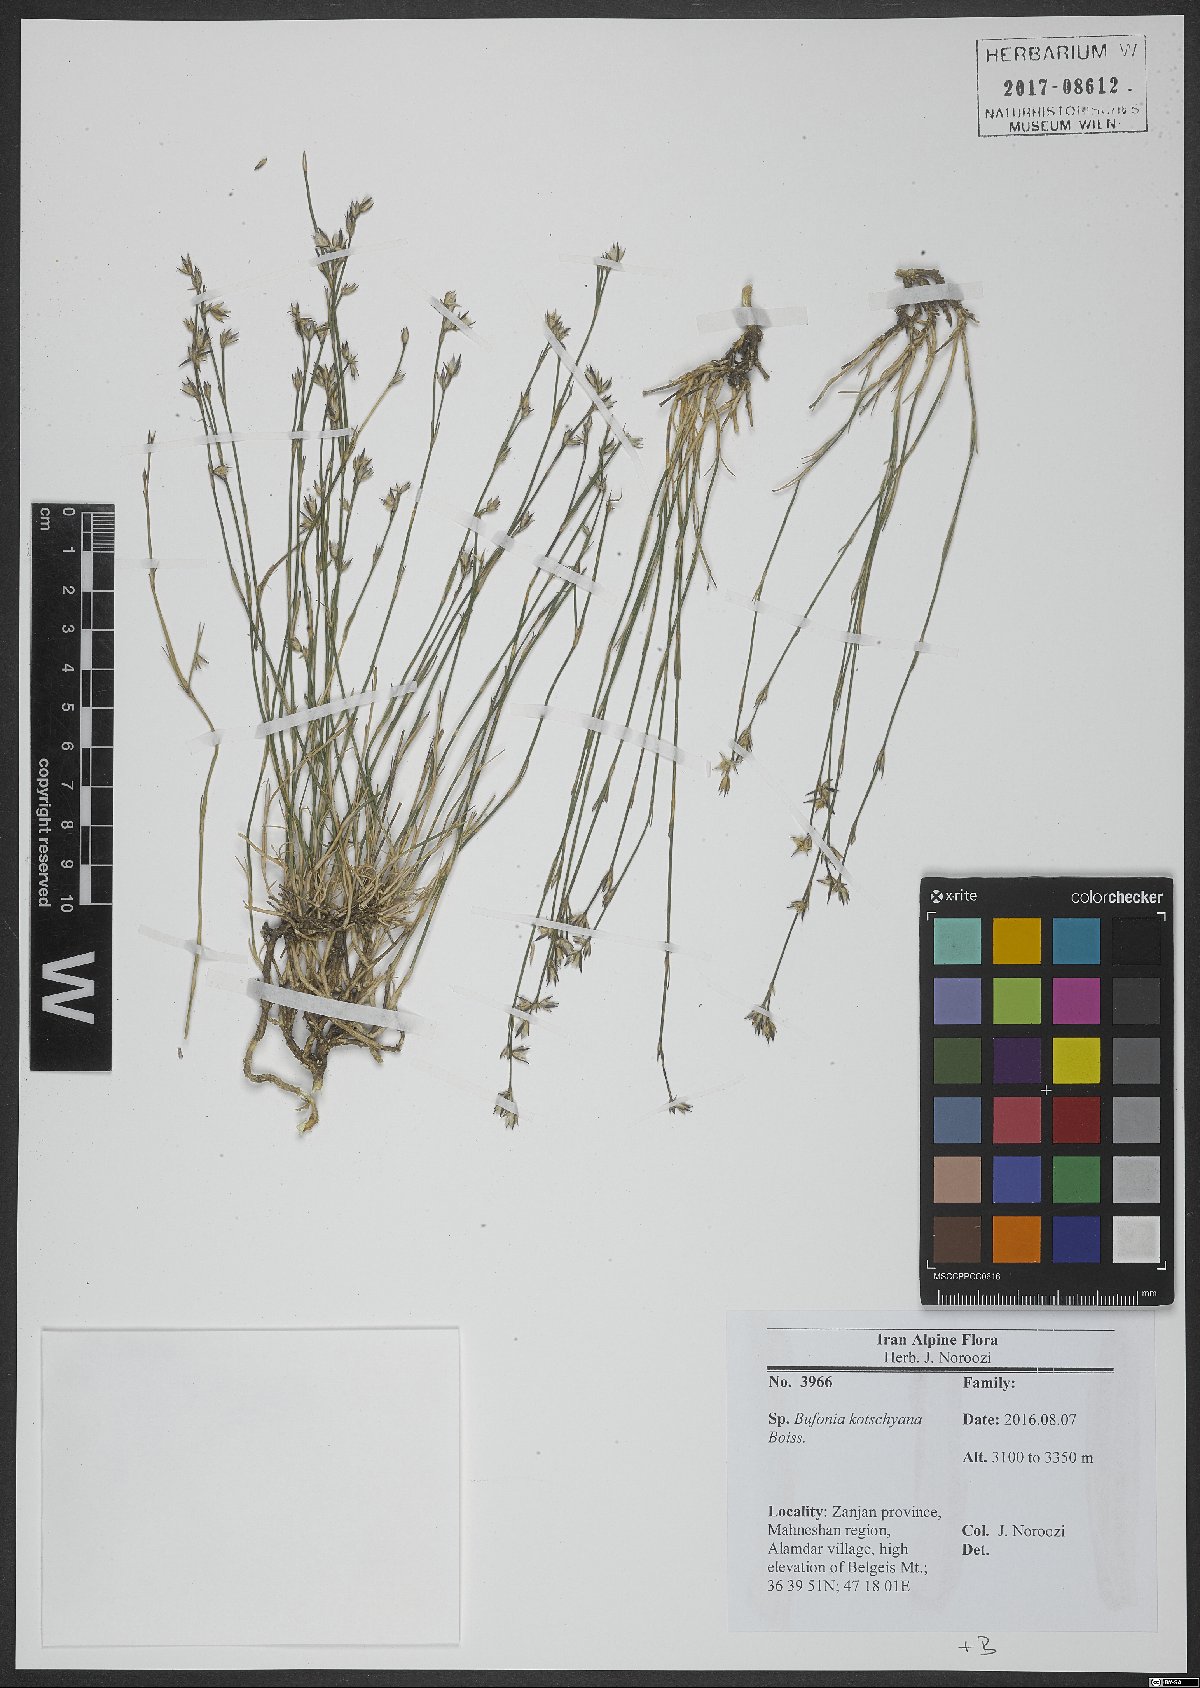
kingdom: Plantae
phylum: Tracheophyta
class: Magnoliopsida
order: Caryophyllales
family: Caryophyllaceae
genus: Bufonia
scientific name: Bufonia kotschyana
